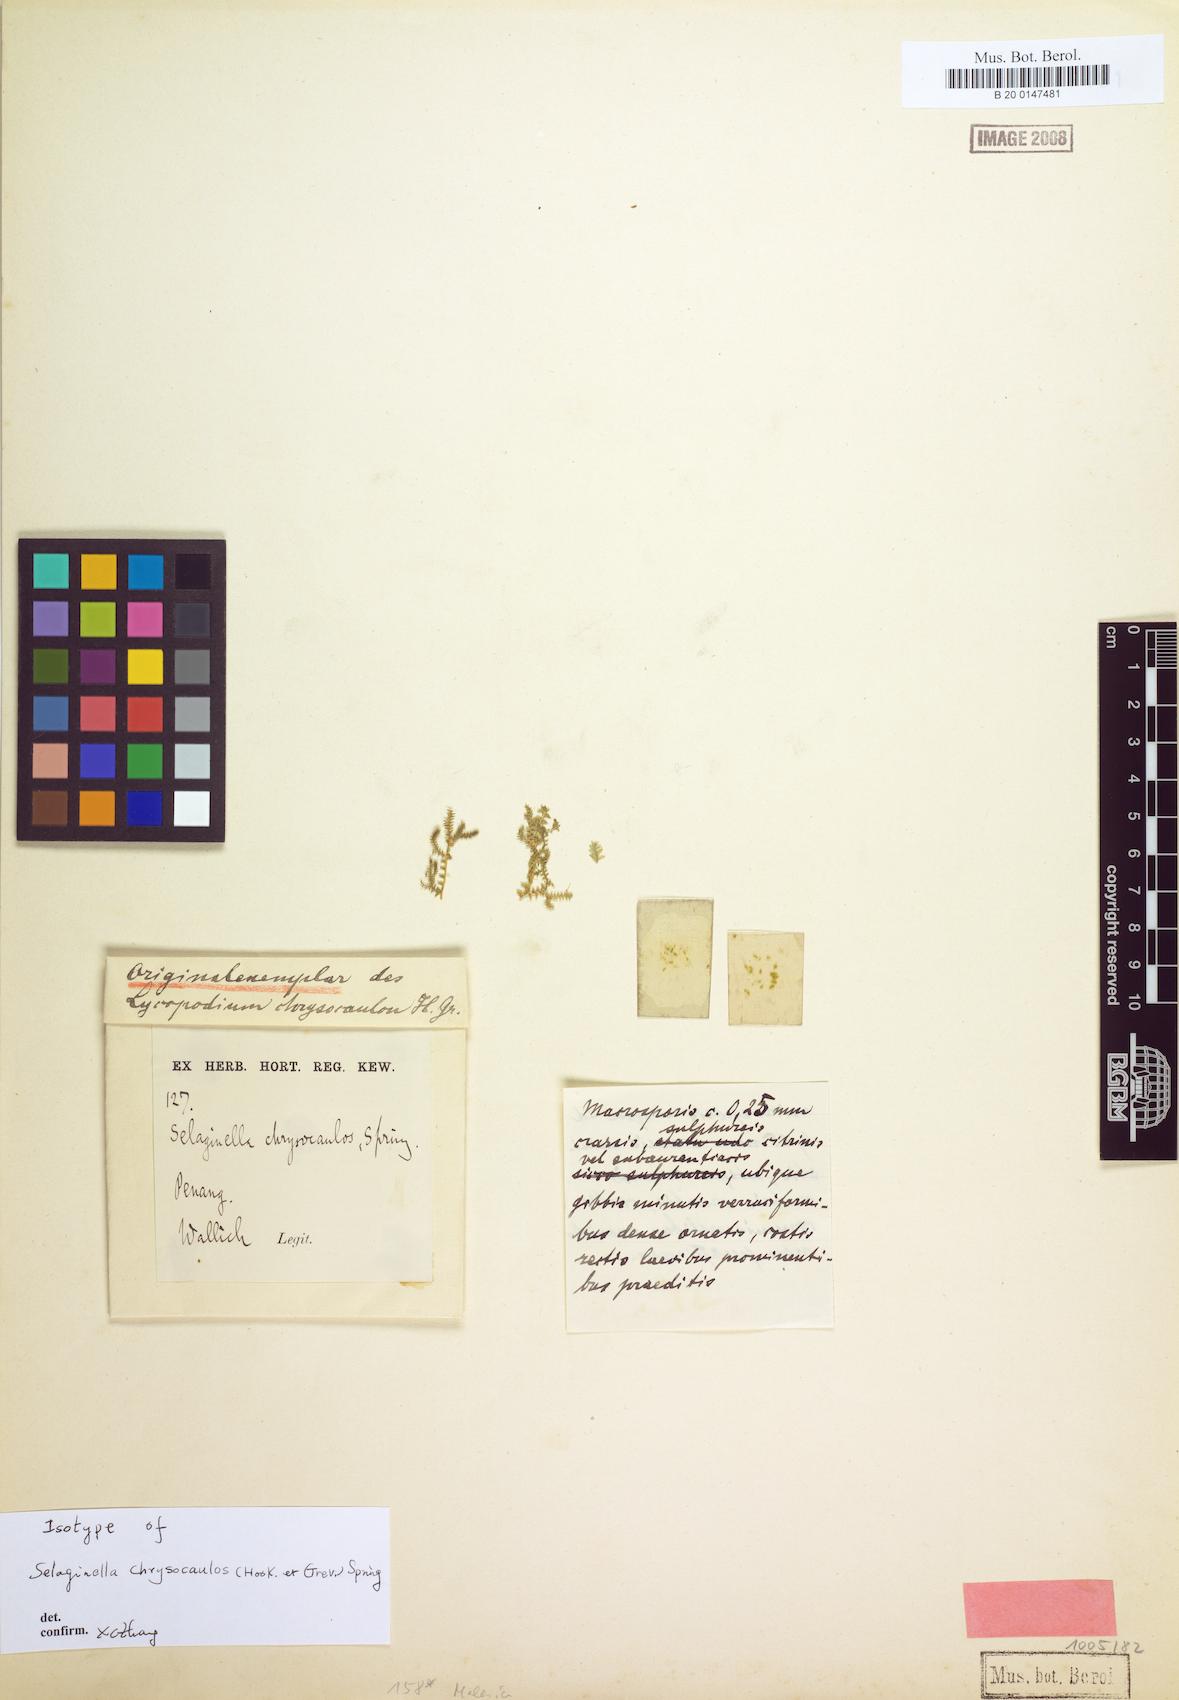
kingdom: Plantae
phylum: Tracheophyta
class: Lycopodiopsida
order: Selaginellales
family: Selaginellaceae
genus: Selaginella
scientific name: Selaginella chrysocaulos
